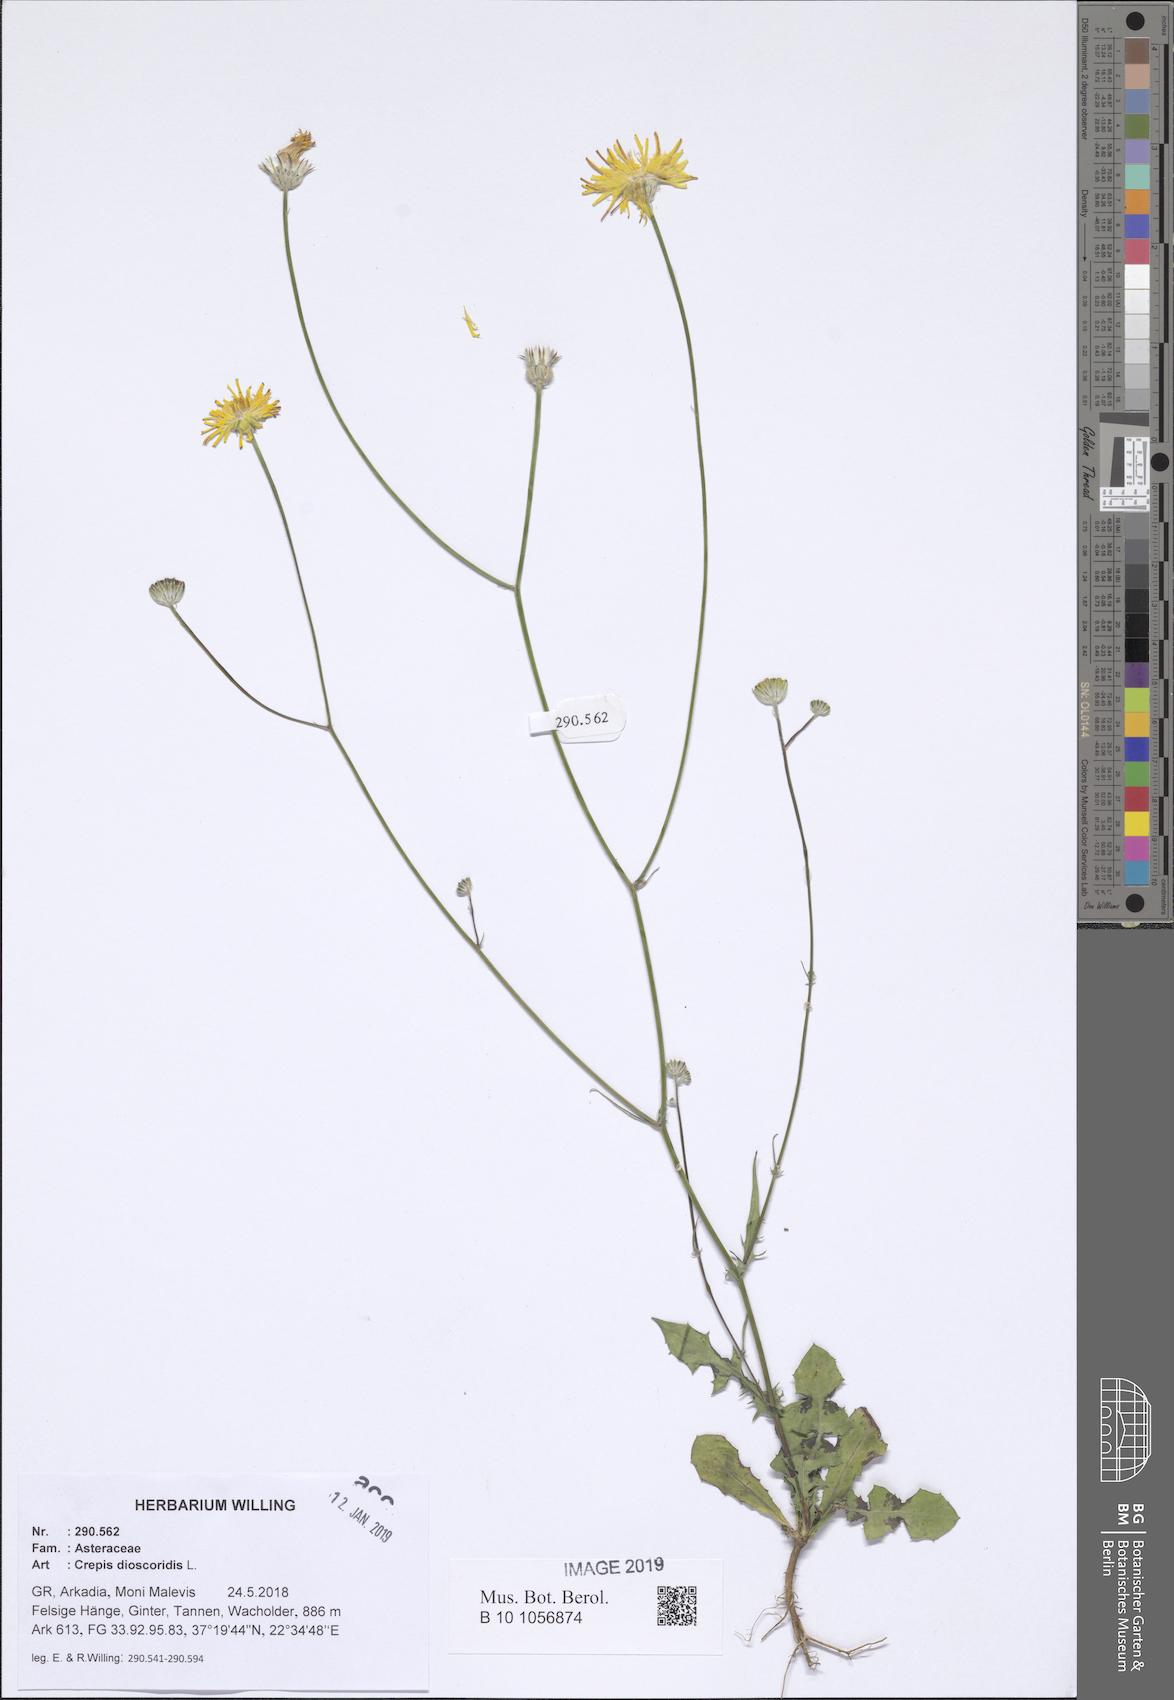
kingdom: Plantae
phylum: Tracheophyta
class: Magnoliopsida
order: Asterales
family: Asteraceae
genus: Crepis
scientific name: Crepis dioscoridis
